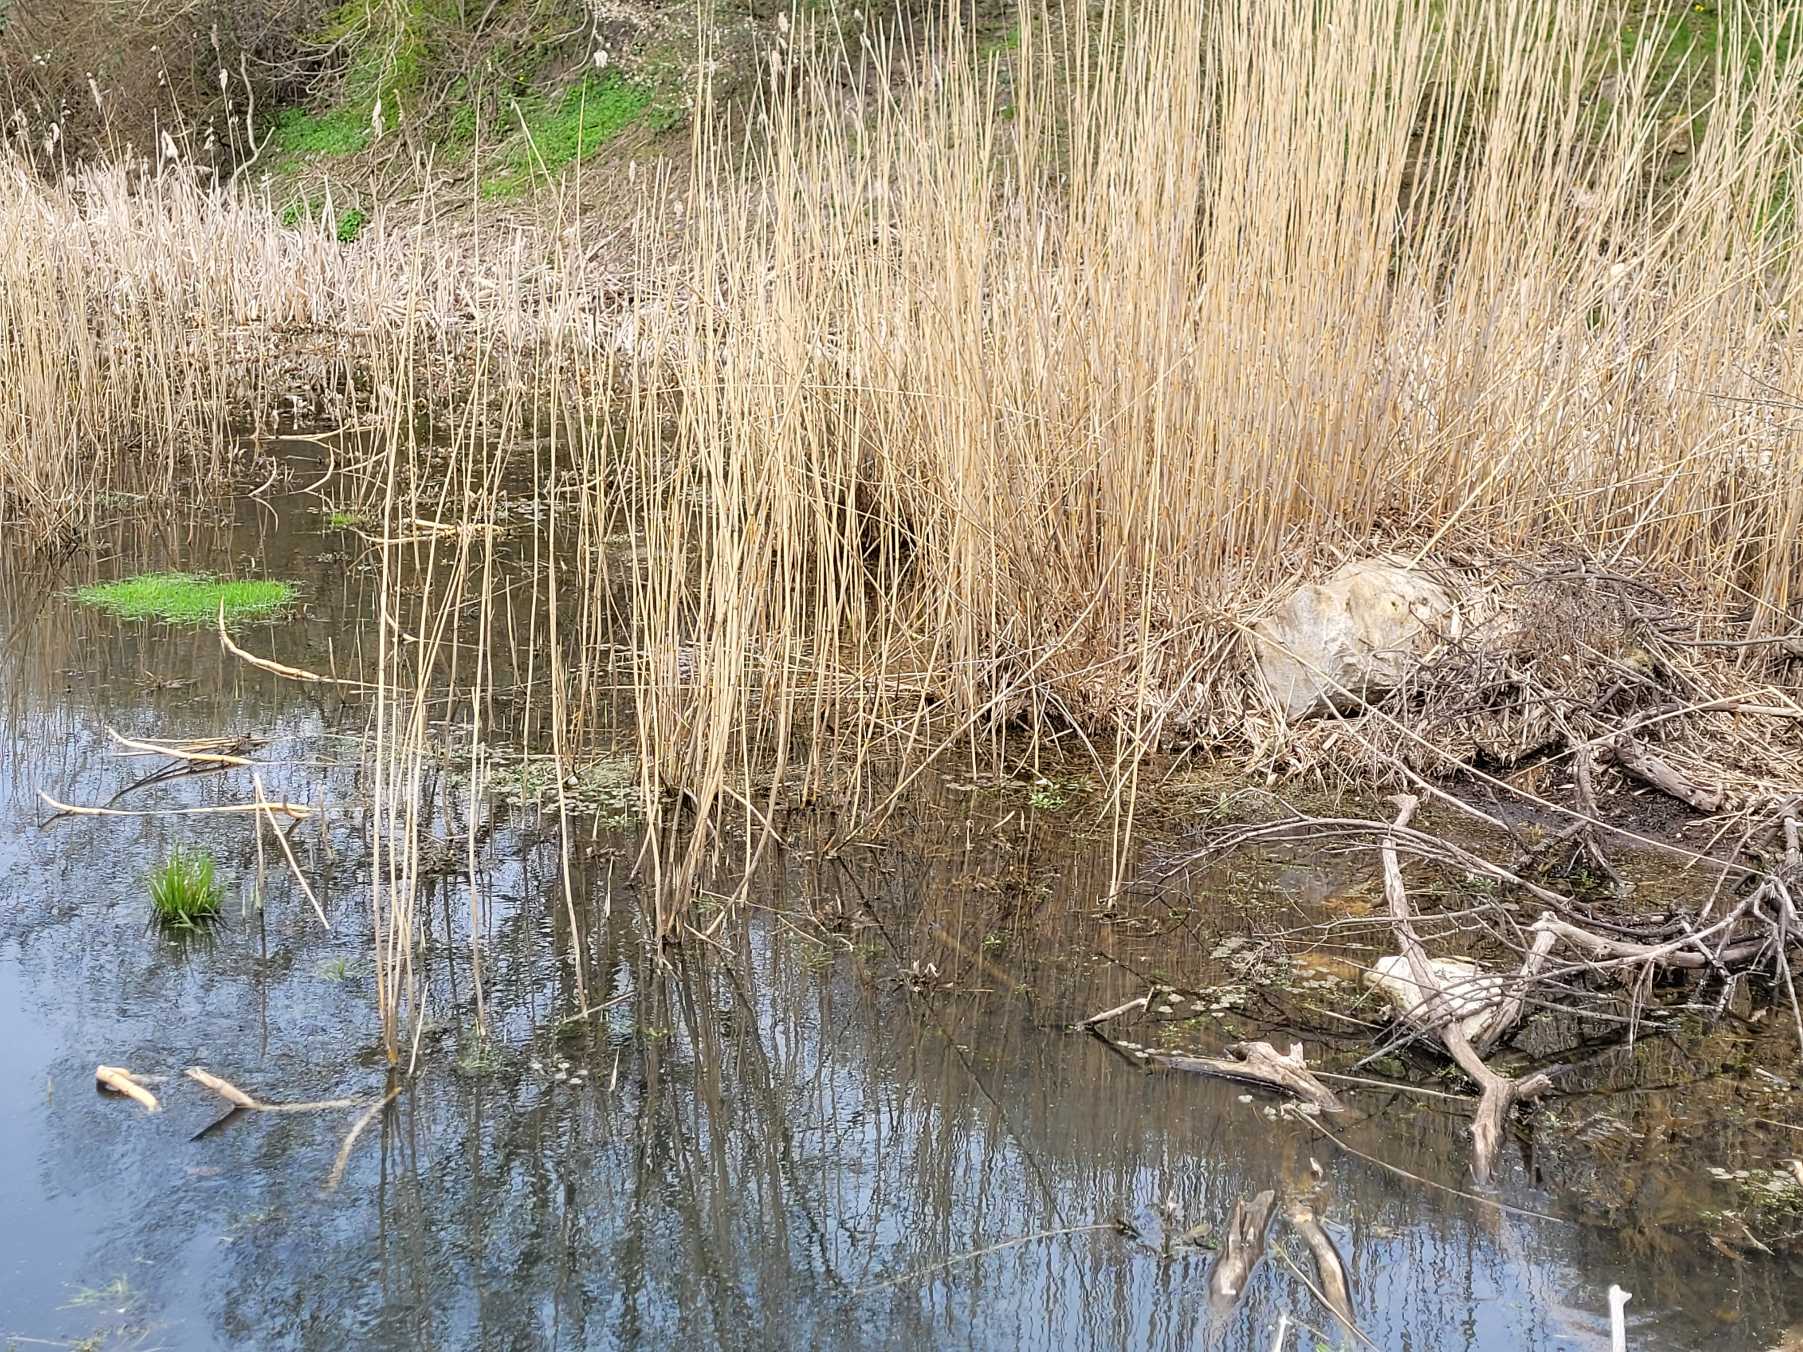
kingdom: Animalia
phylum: Chordata
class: Amphibia
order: Anura
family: Ranidae
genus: Rana
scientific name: Rana temporaria
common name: Butsnudet frø
